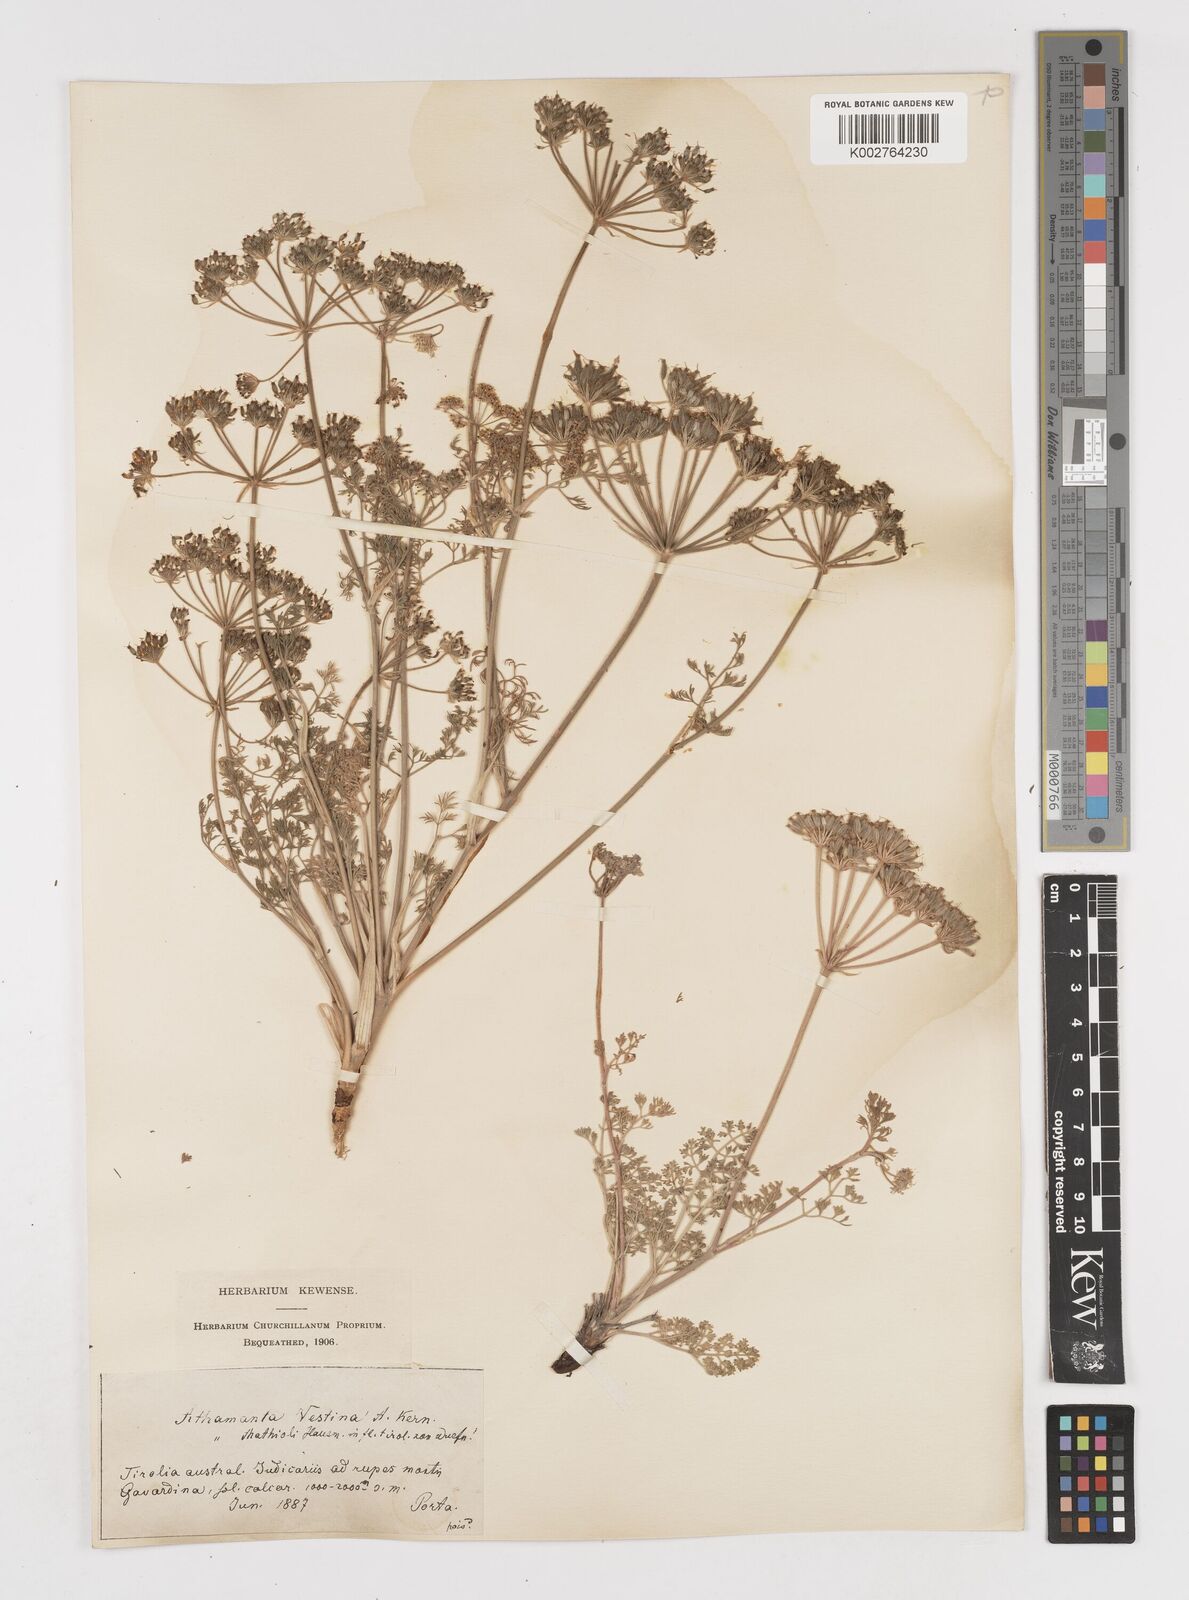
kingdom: Plantae
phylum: Tracheophyta
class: Magnoliopsida
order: Apiales
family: Apiaceae
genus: Athamanta
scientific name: Athamanta cretensis
